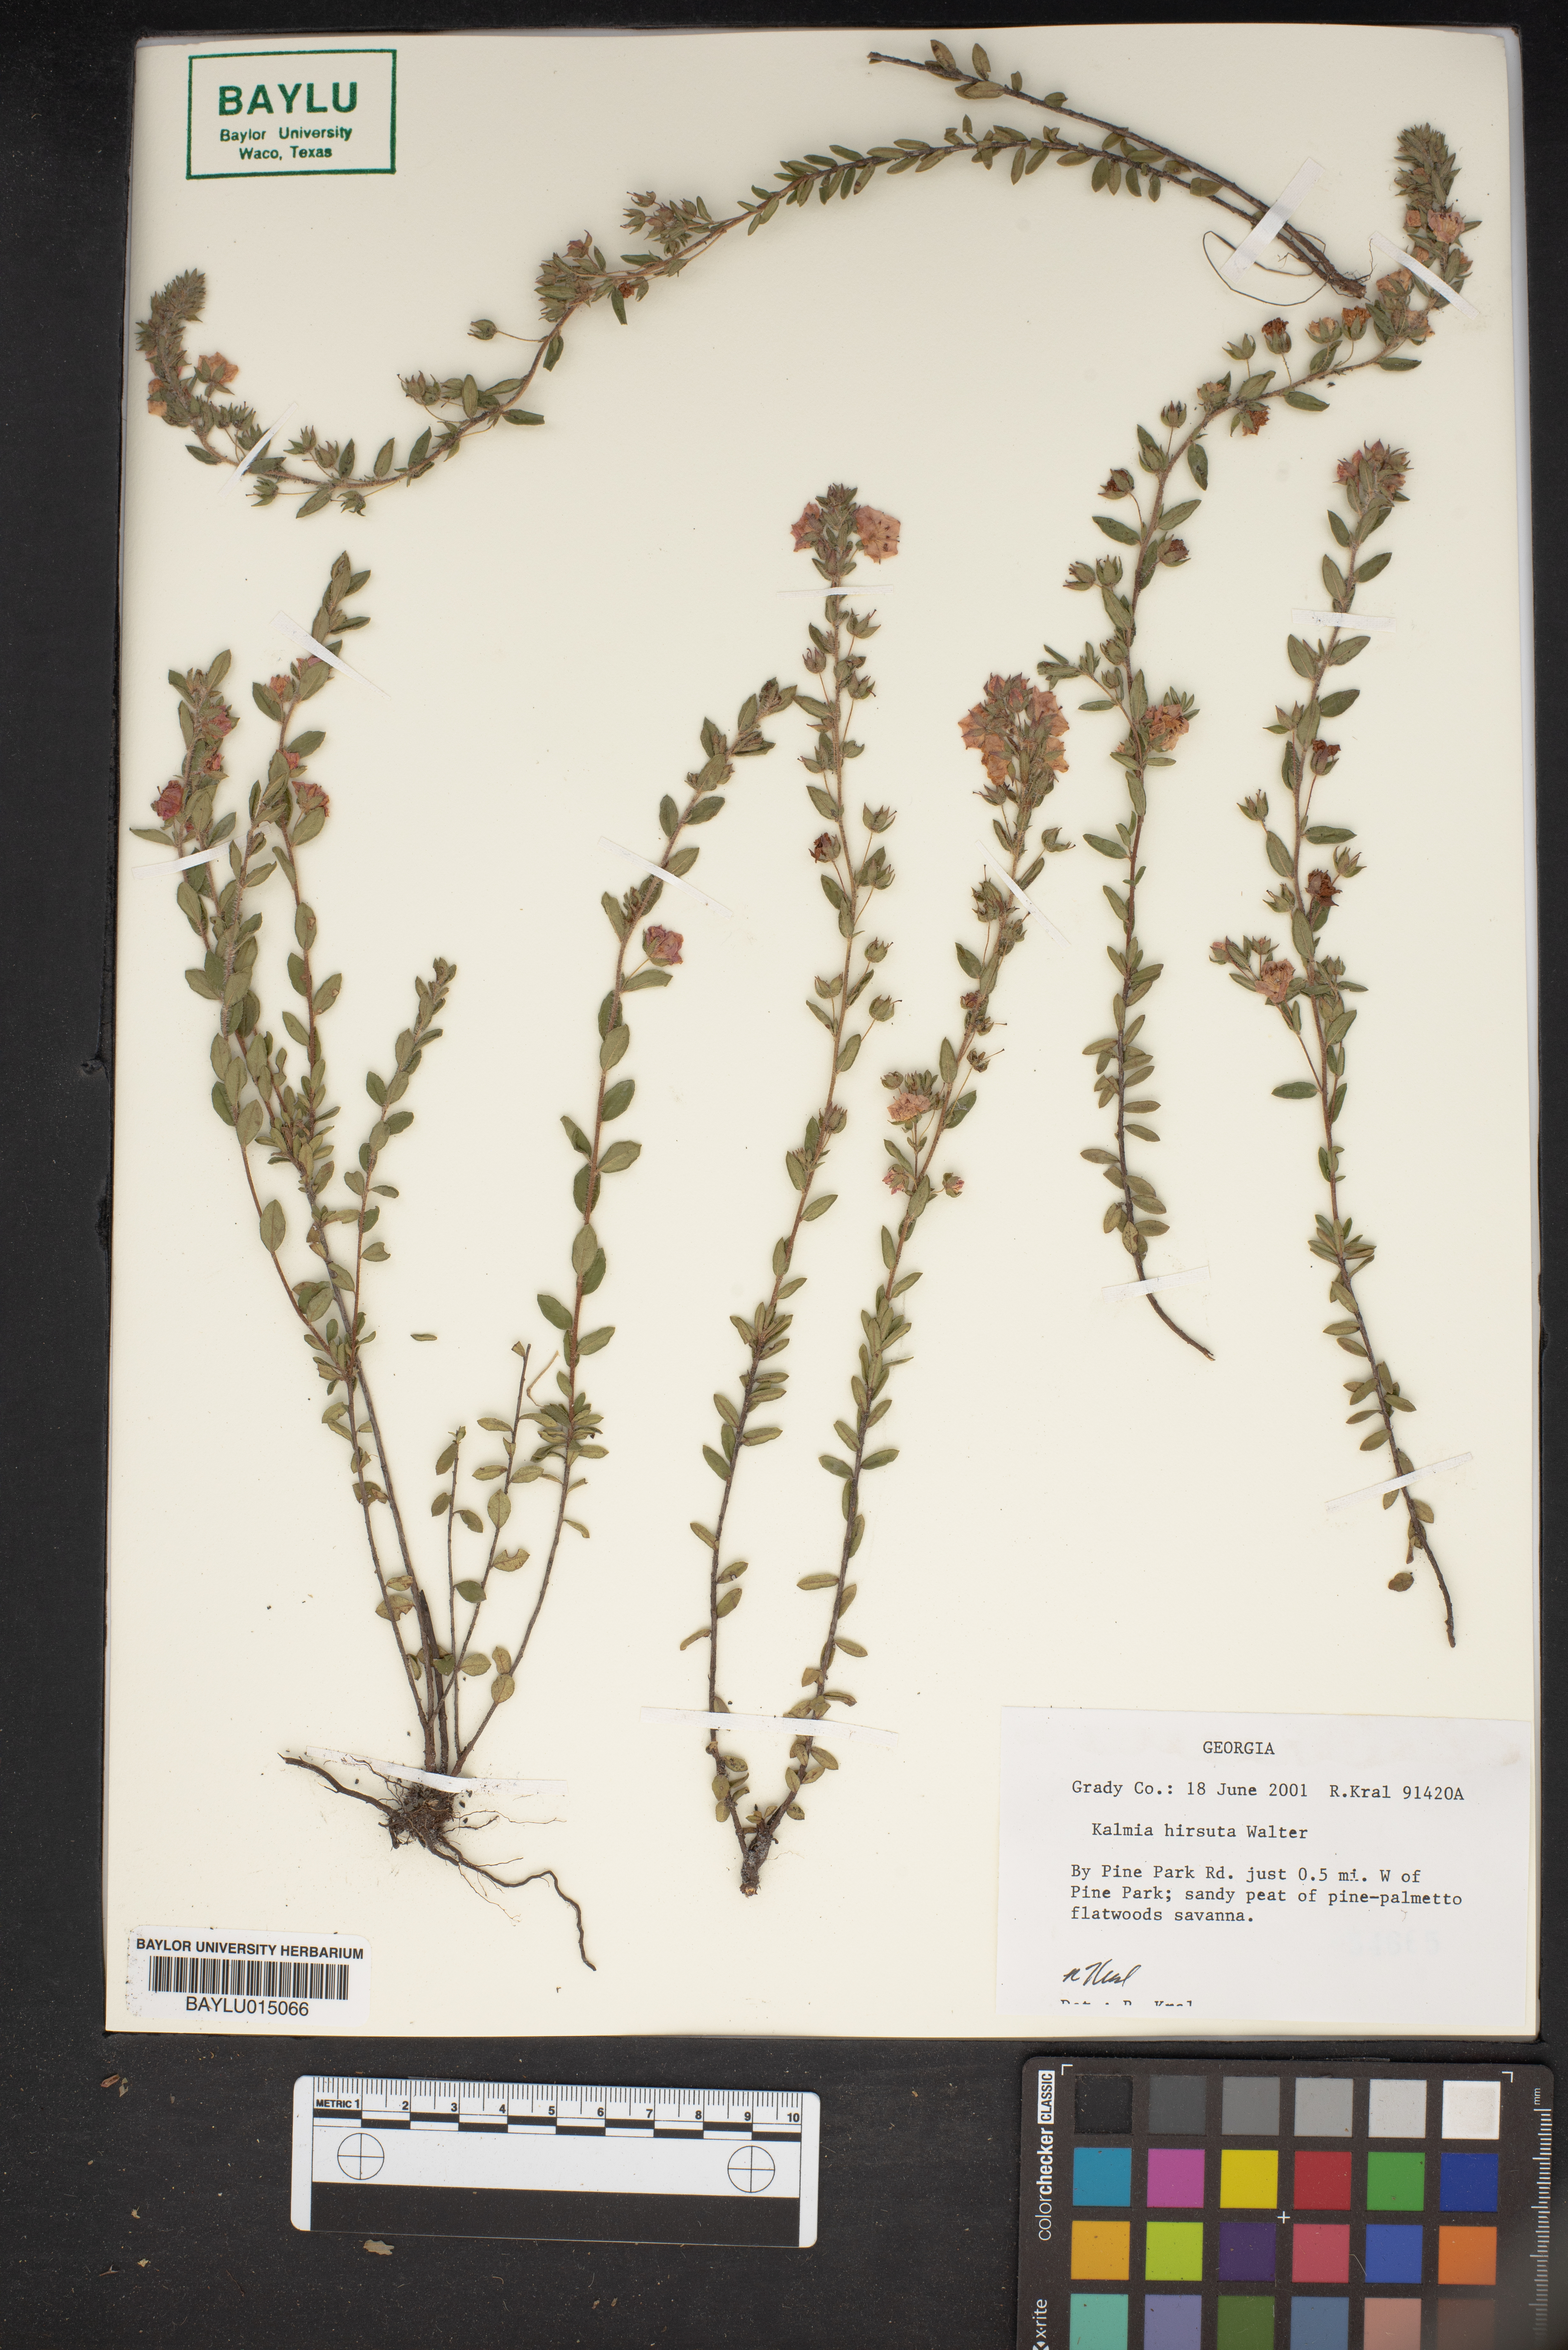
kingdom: Plantae
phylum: Tracheophyta
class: Magnoliopsida
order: Ericales
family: Ericaceae
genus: Kalmia
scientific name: Kalmia hirsuta
